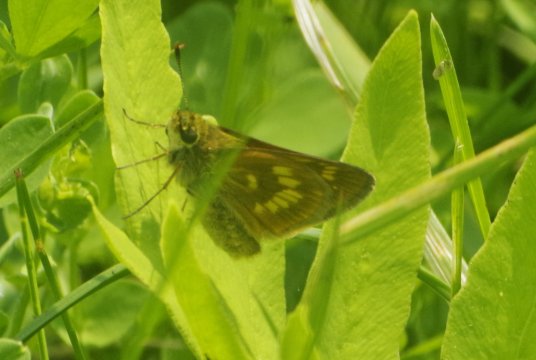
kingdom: Animalia
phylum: Arthropoda
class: Insecta
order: Lepidoptera
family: Hesperiidae
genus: Polites
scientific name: Polites
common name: Long Dash Skipper
